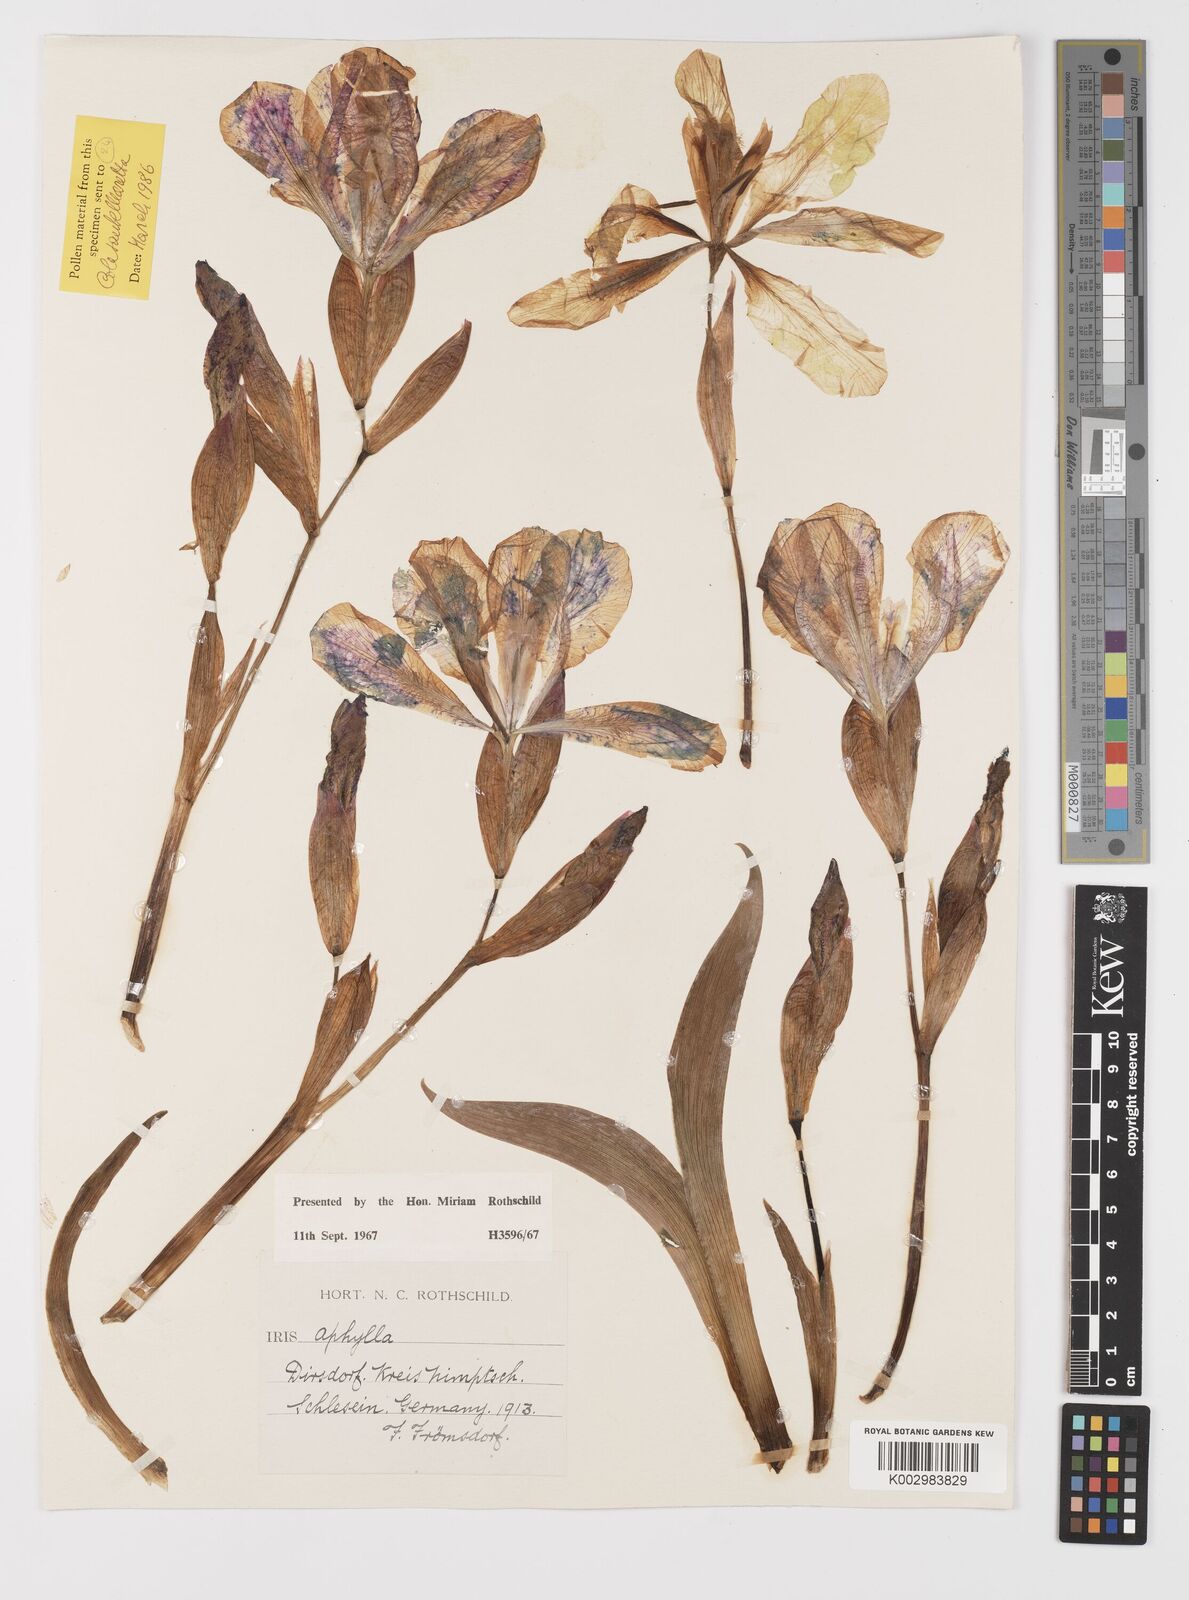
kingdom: Plantae
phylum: Tracheophyta
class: Liliopsida
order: Asparagales
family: Iridaceae
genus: Iris
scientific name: Iris aphylla
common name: Stool iris
